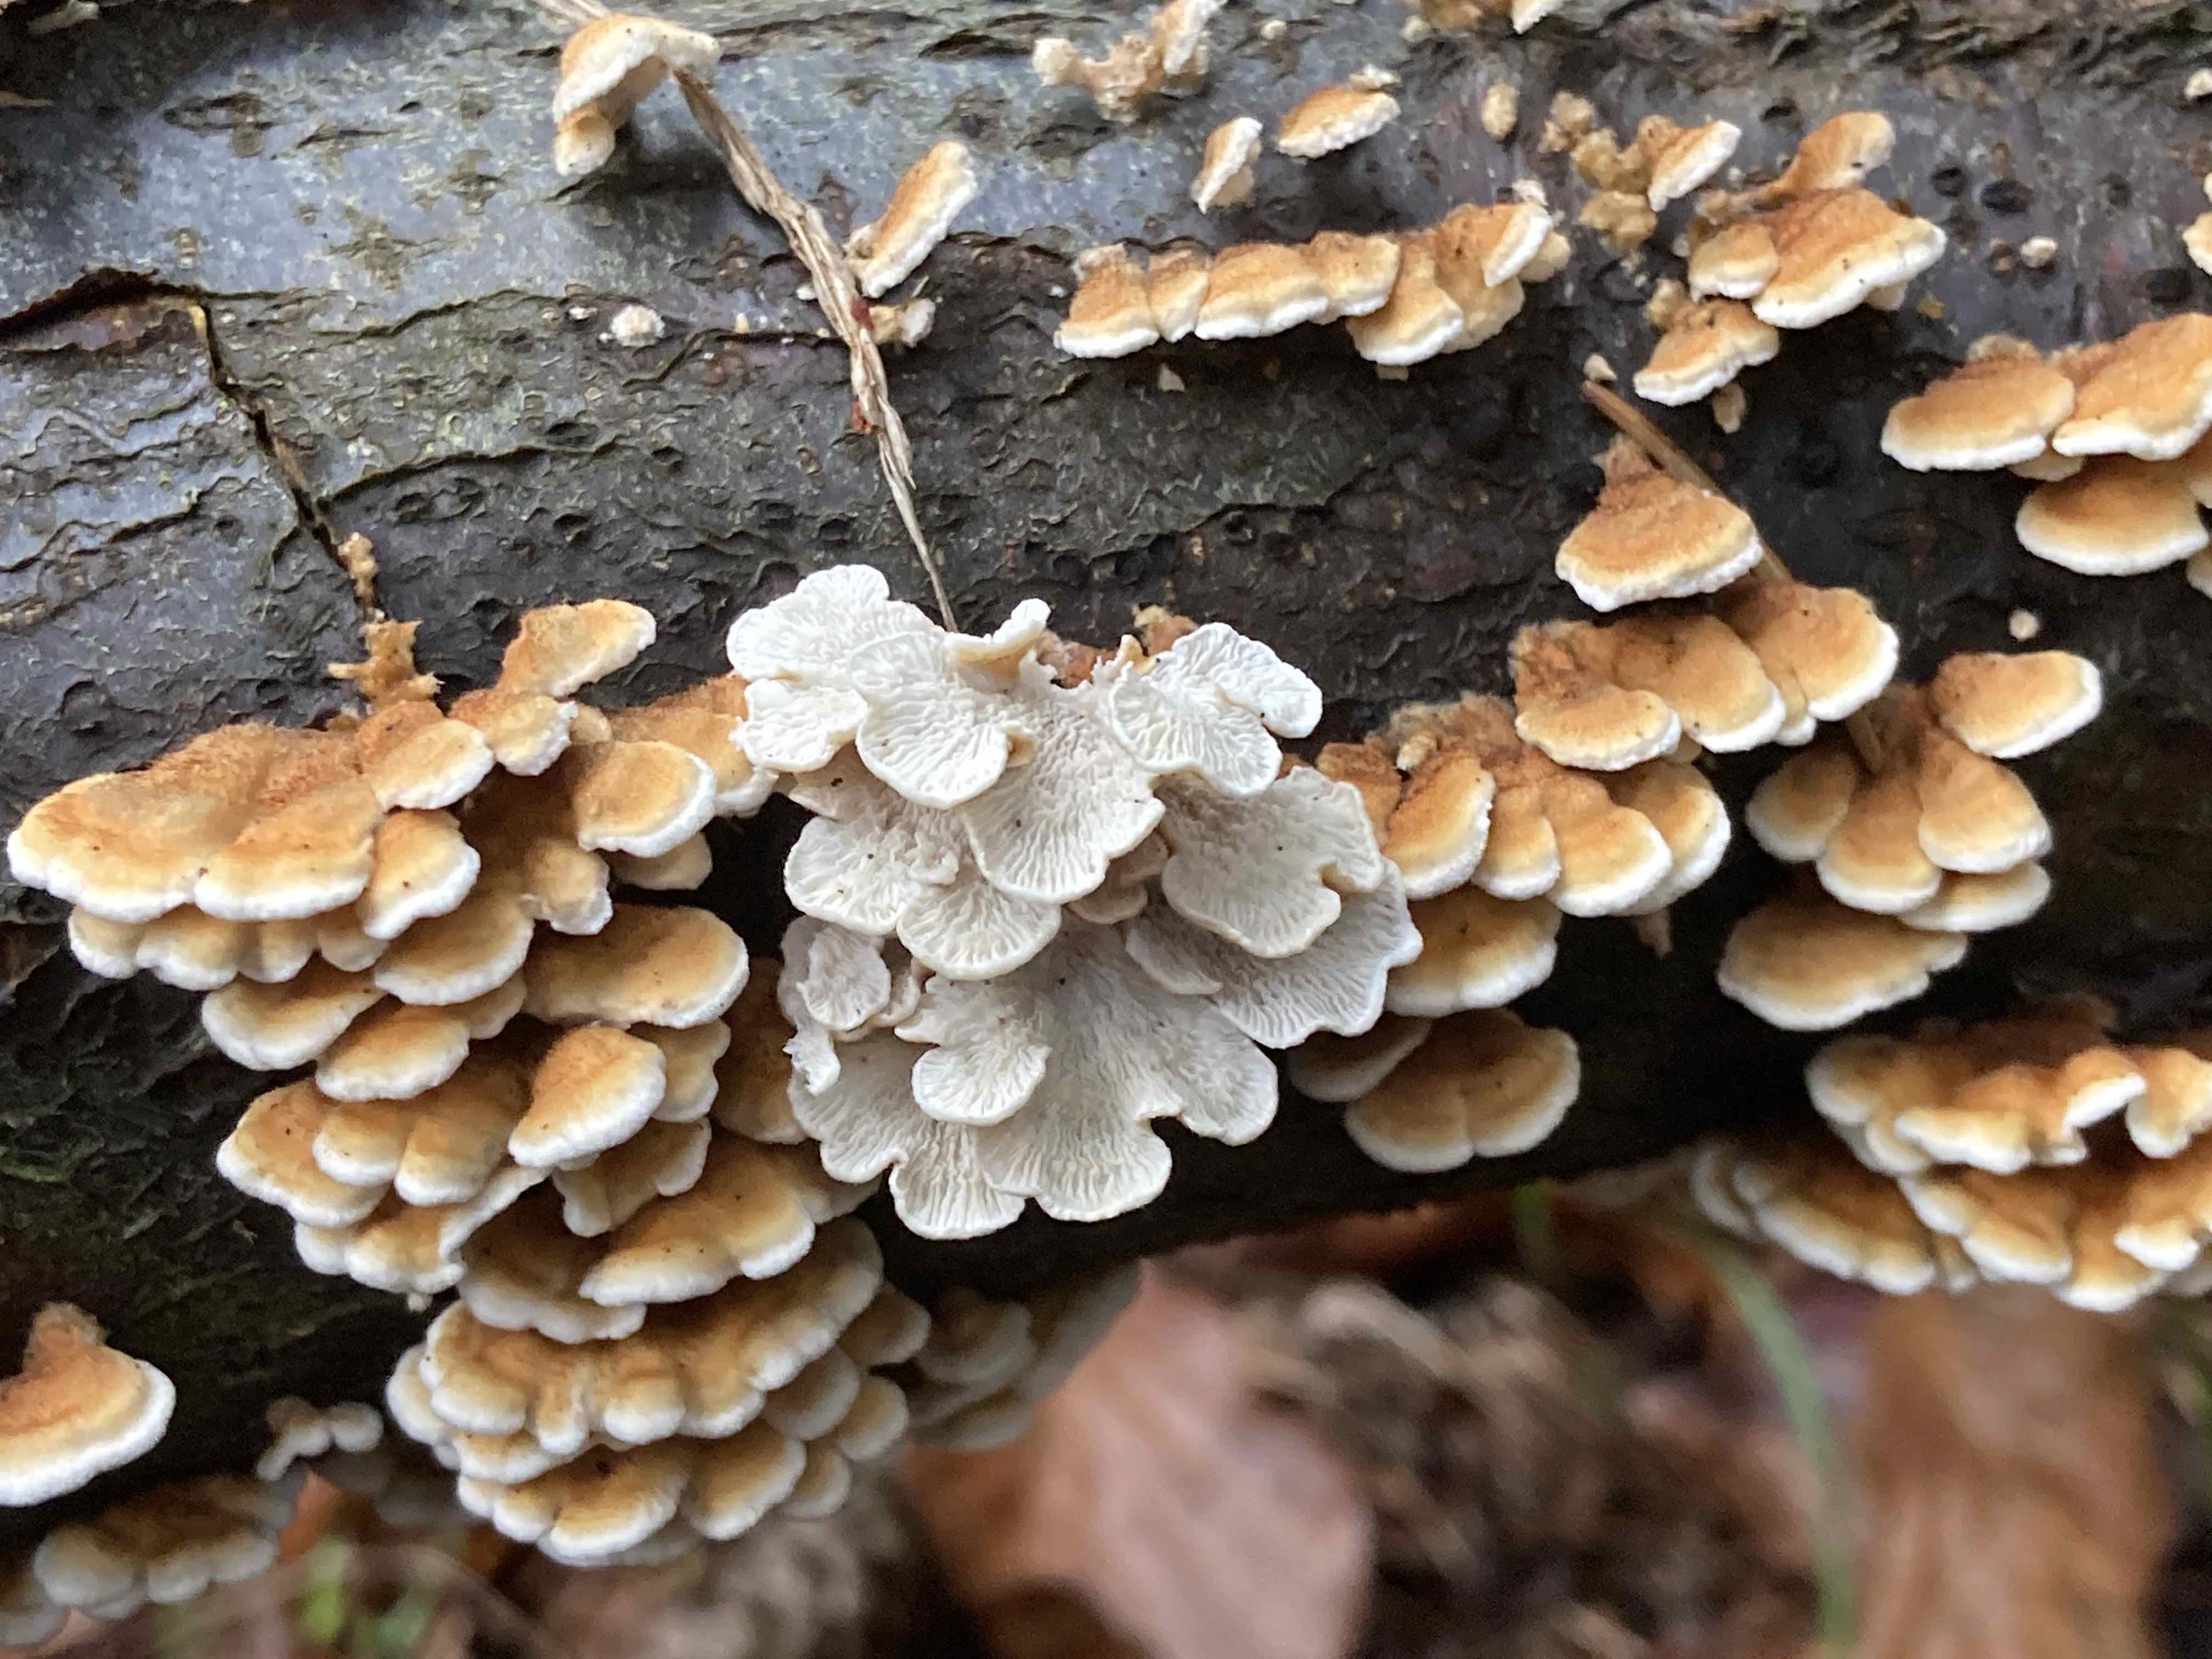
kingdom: Fungi
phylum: Basidiomycota
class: Agaricomycetes
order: Amylocorticiales
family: Amylocorticiaceae
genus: Plicaturopsis
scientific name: Plicaturopsis crispa
